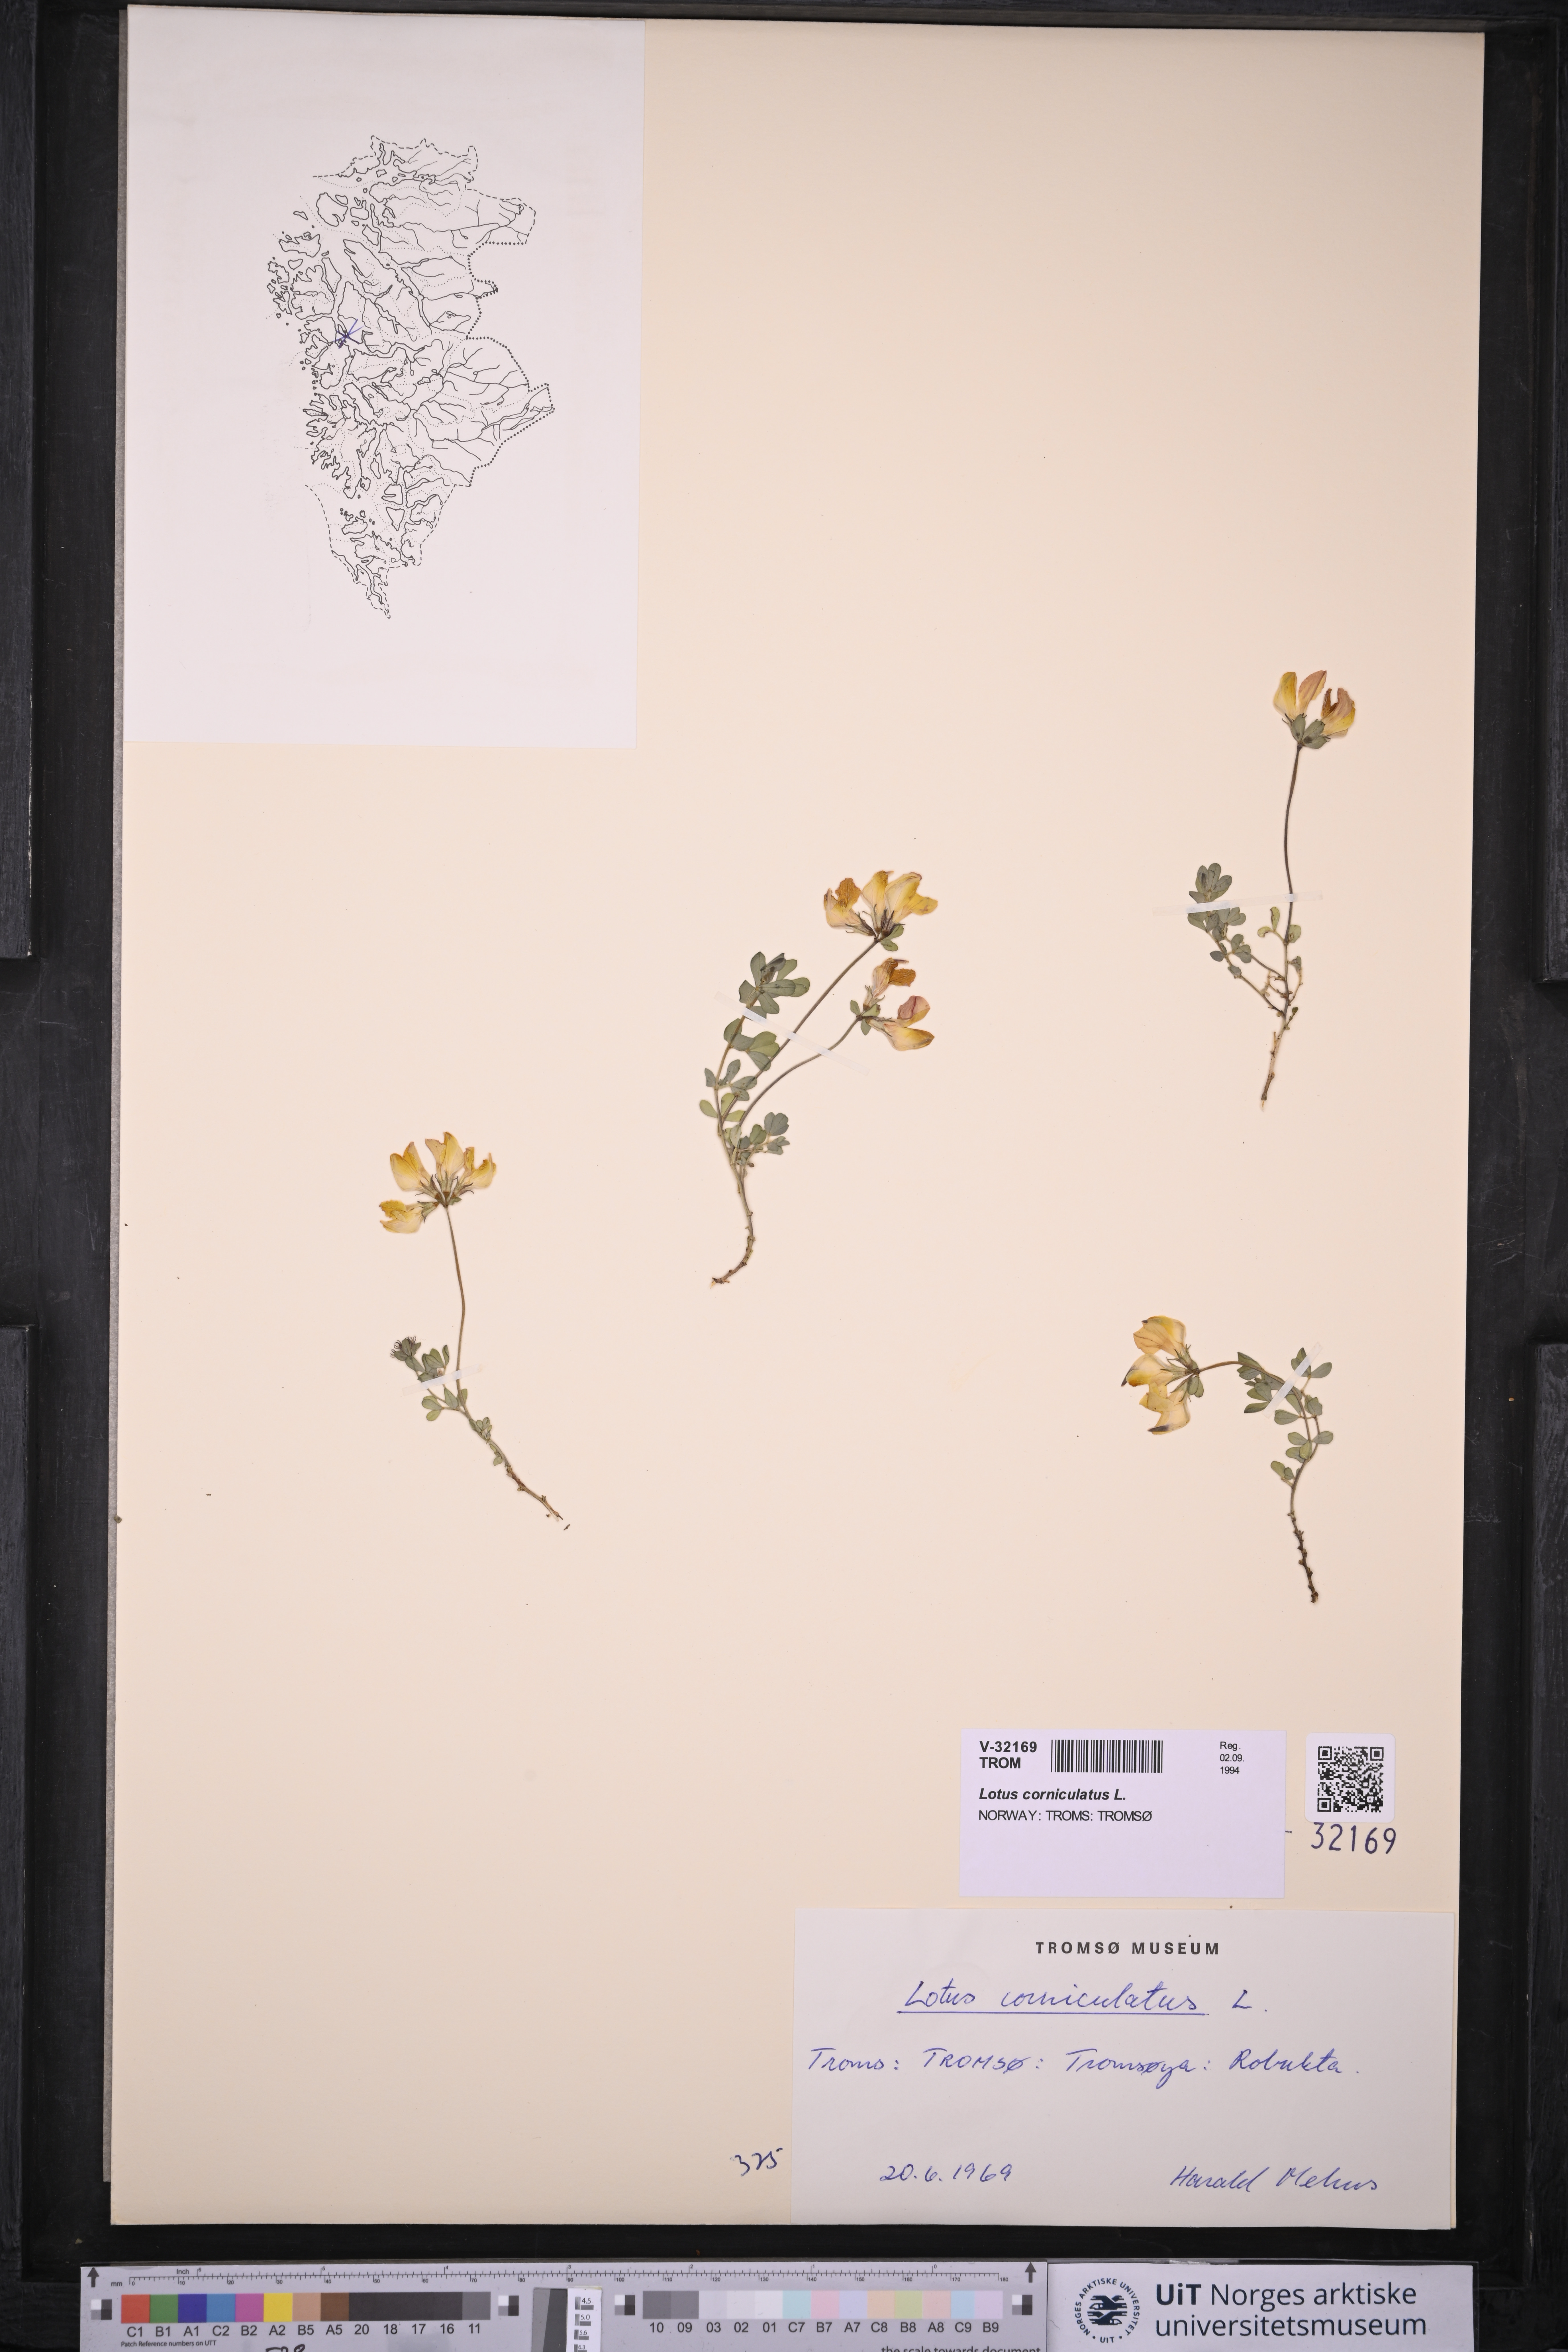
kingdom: Plantae
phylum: Tracheophyta
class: Magnoliopsida
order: Fabales
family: Fabaceae
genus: Lotus
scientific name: Lotus corniculatus
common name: Common bird's-foot-trefoil
